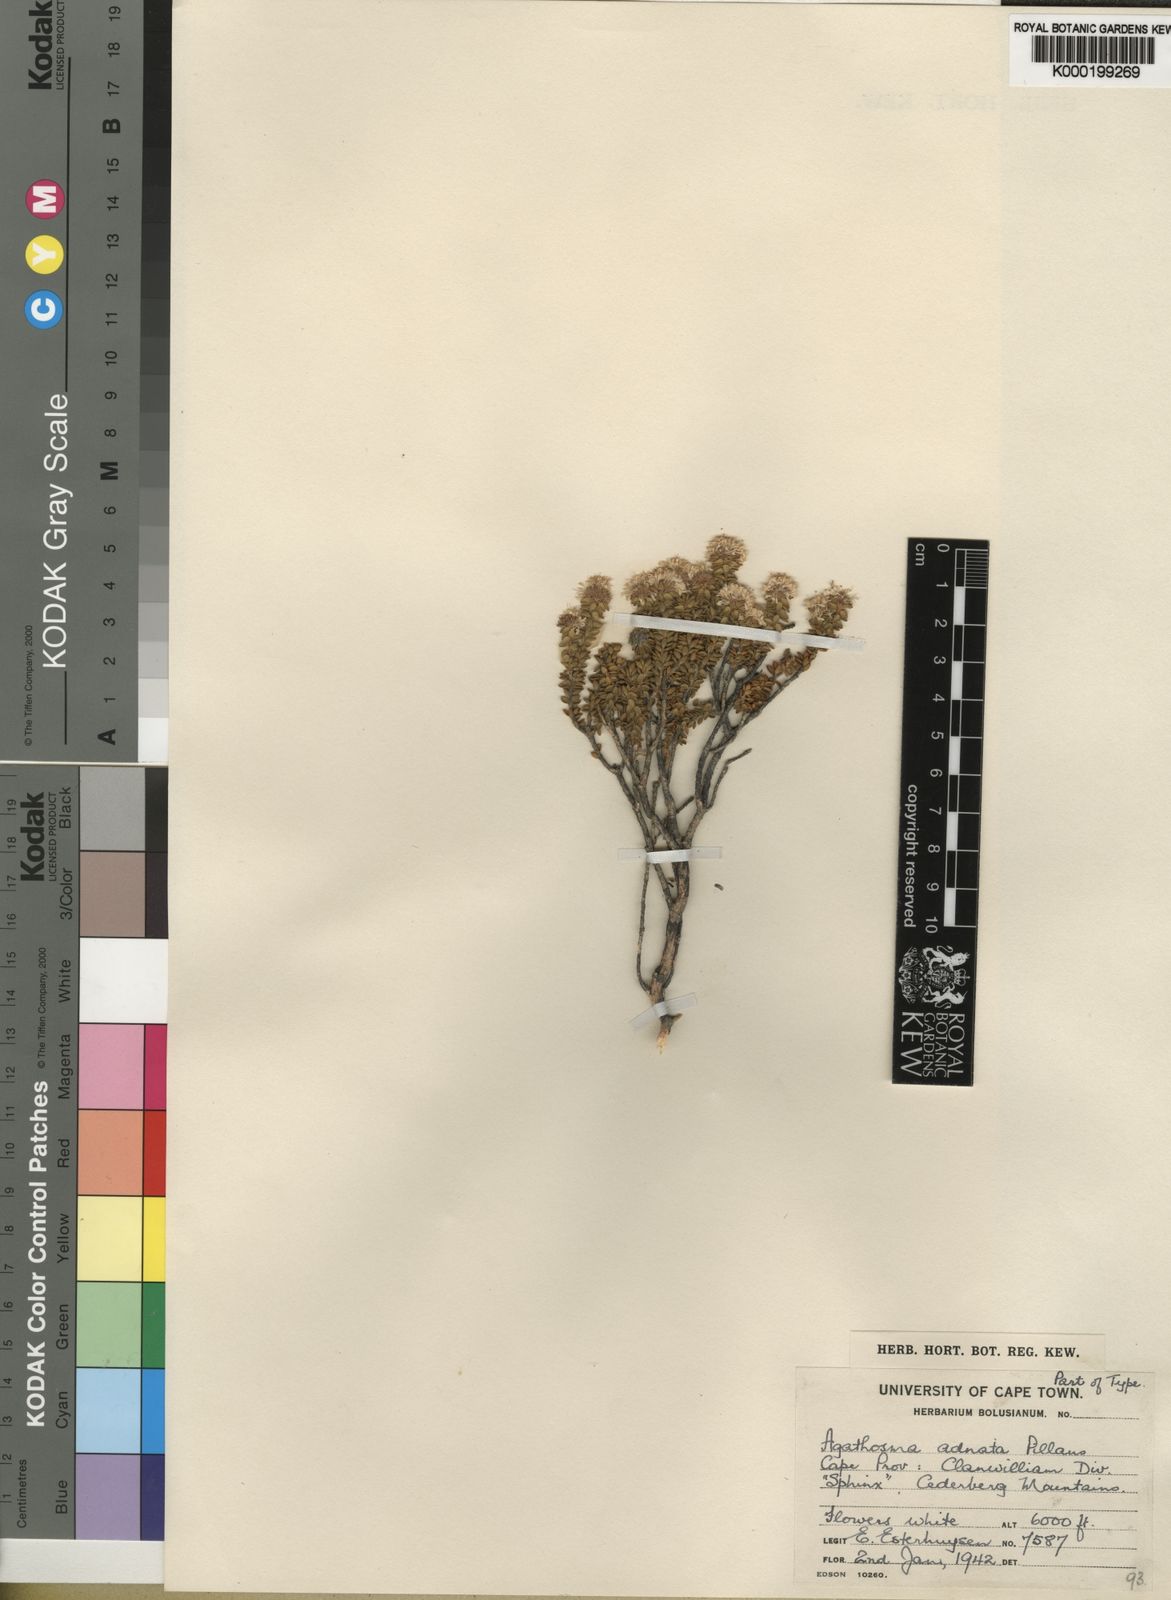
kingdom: Plantae
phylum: Tracheophyta
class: Magnoliopsida
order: Sapindales
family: Rutaceae
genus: Agathosma
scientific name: Agathosma adnata
